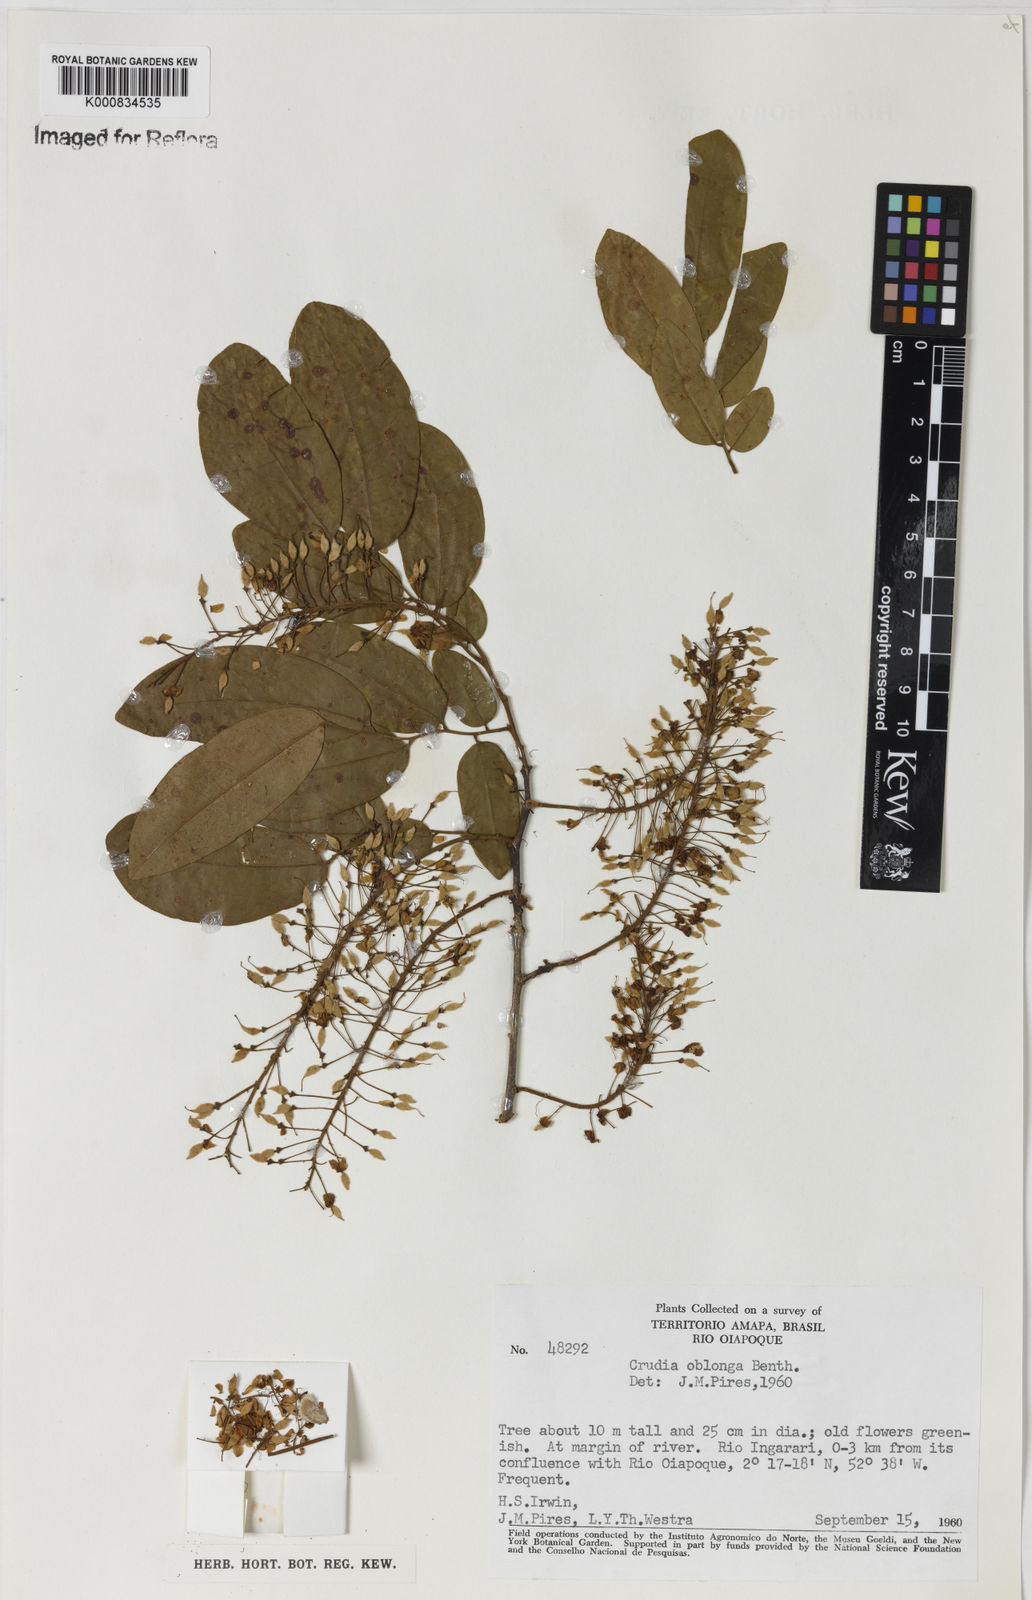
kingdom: Plantae
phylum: Tracheophyta
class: Magnoliopsida
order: Fabales
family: Fabaceae
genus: Crudia
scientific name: Crudia glaberrima
